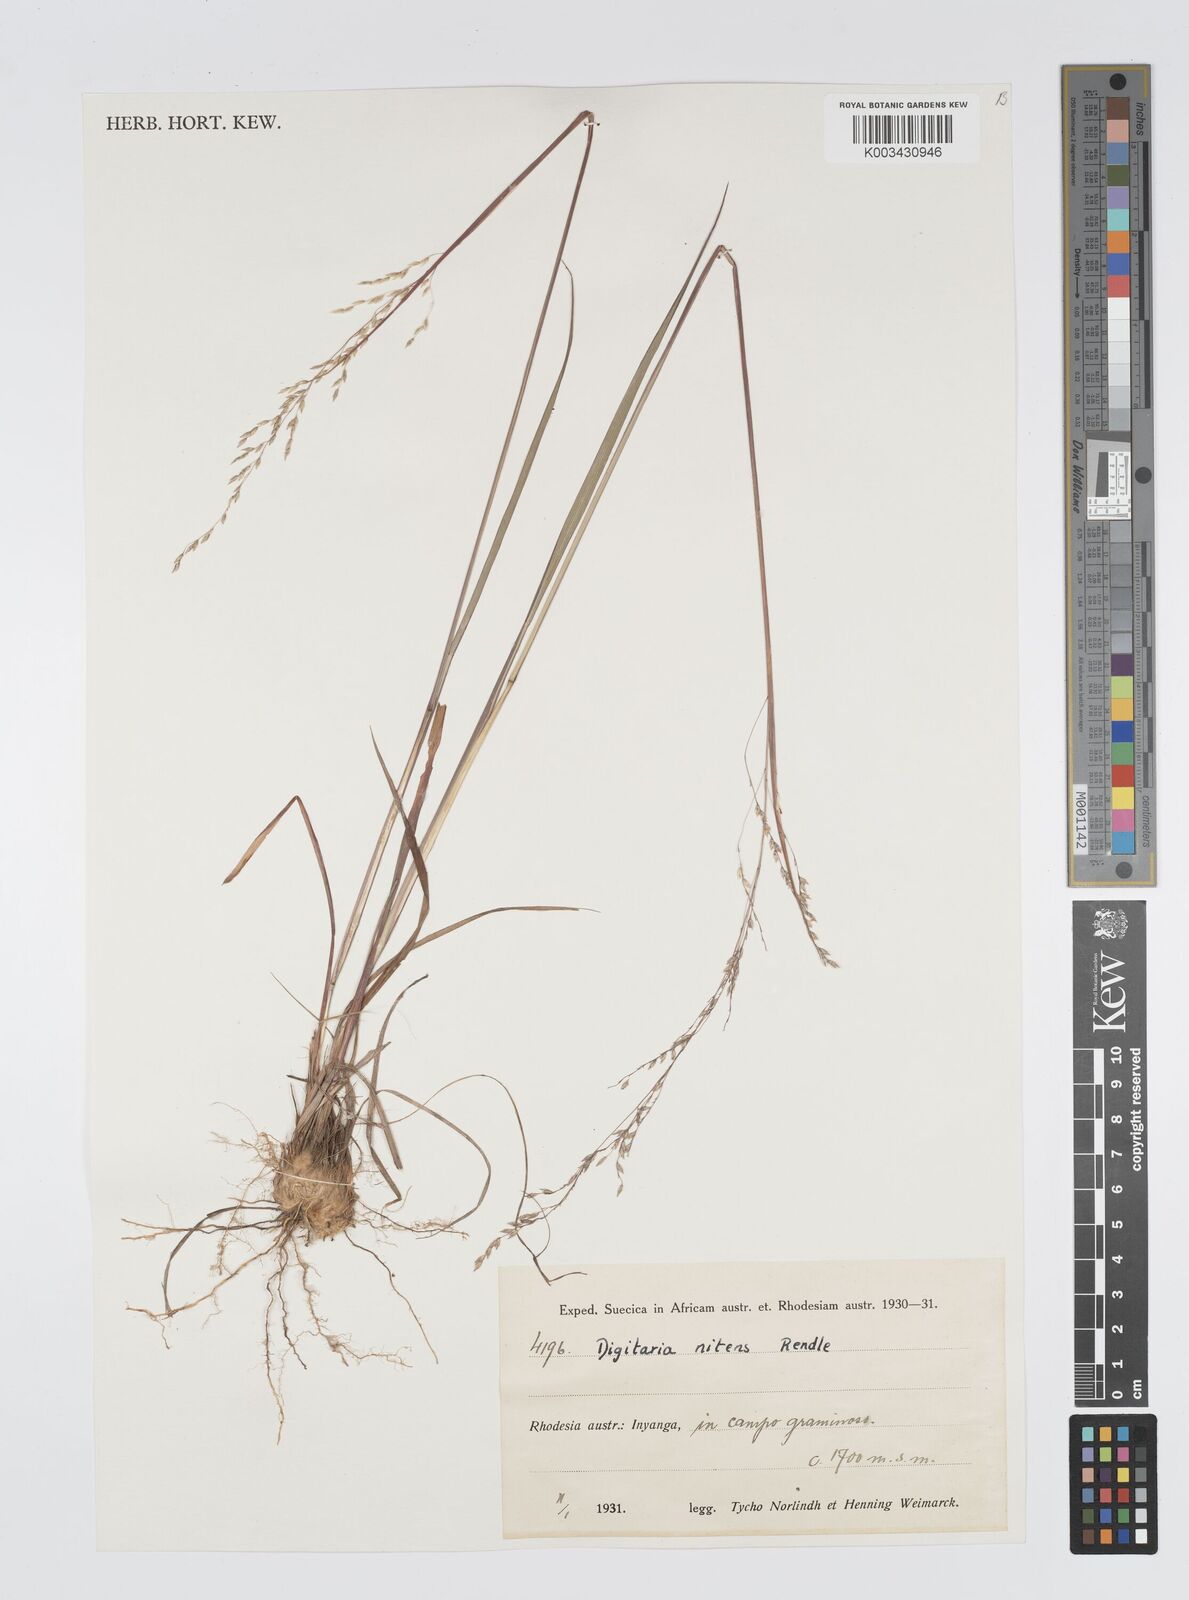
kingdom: Plantae
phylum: Tracheophyta
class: Liliopsida
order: Poales
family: Poaceae
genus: Digitaria
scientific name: Digitaria flaccida
